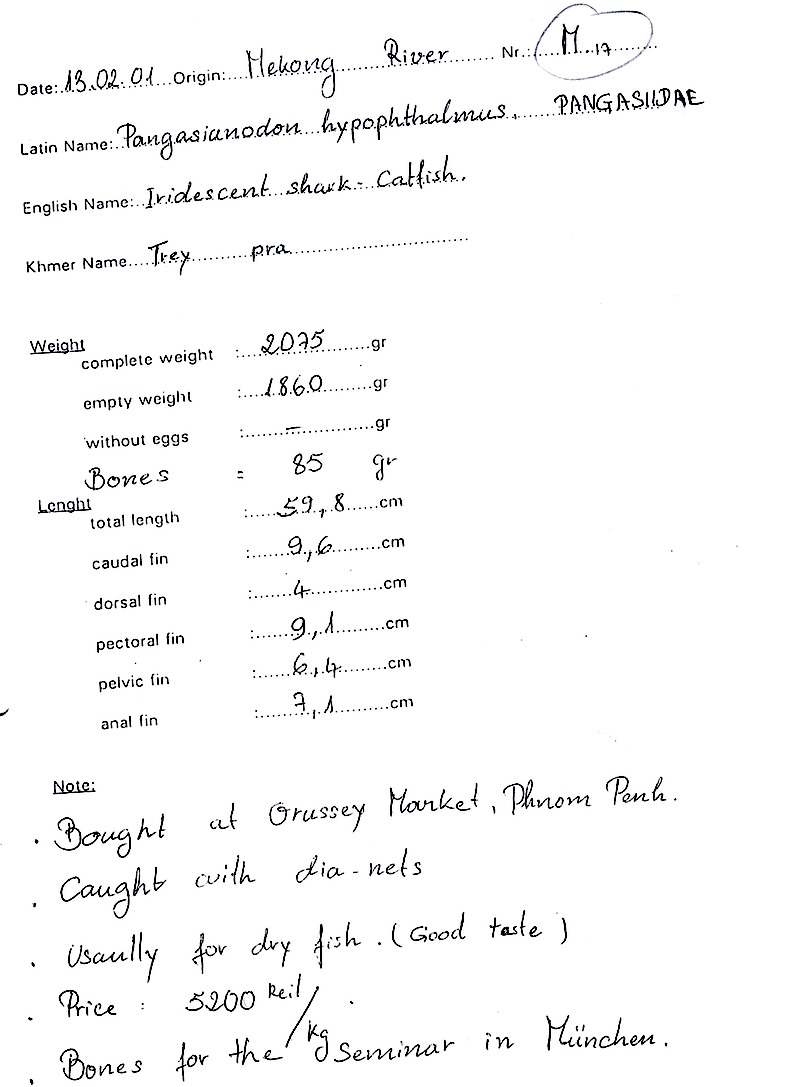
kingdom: Animalia
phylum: Chordata
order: Siluriformes
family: Pangasiidae
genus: Pangasianodon
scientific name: Pangasianodon hypophthalmus
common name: Striped catfish
